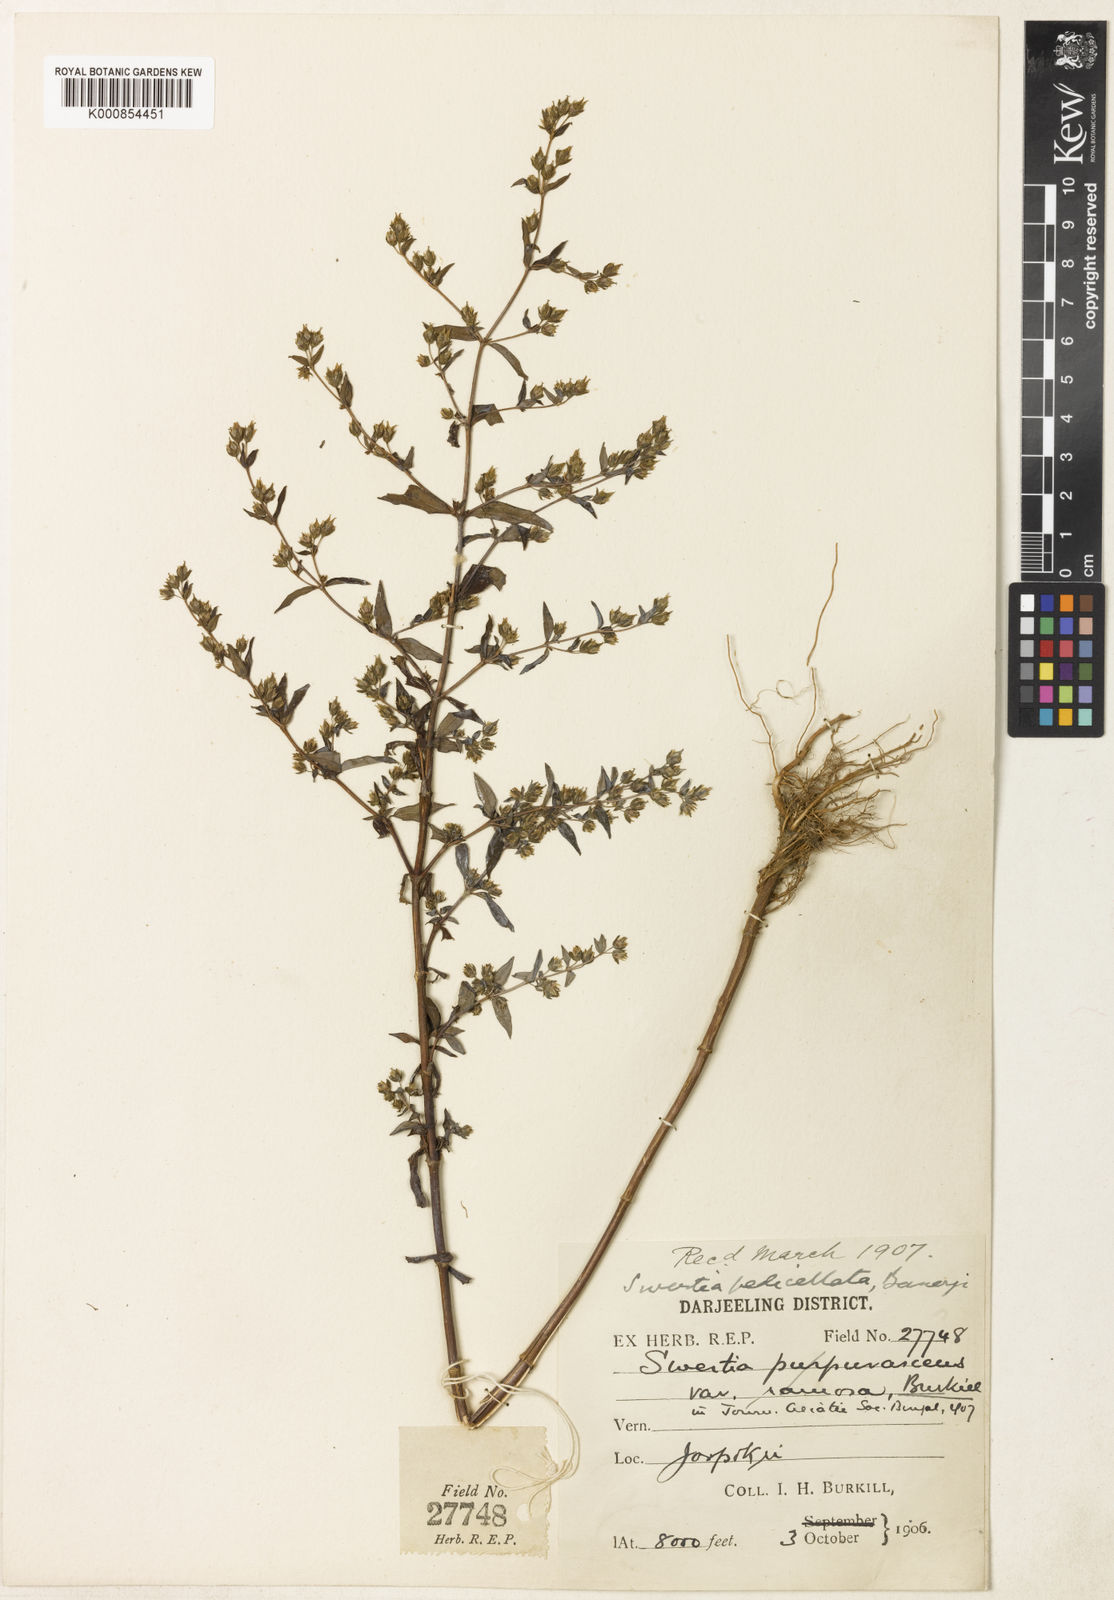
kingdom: Plantae
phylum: Tracheophyta
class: Magnoliopsida
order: Gentianales
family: Gentianaceae
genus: Swertia
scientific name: Swertia purpurascens
